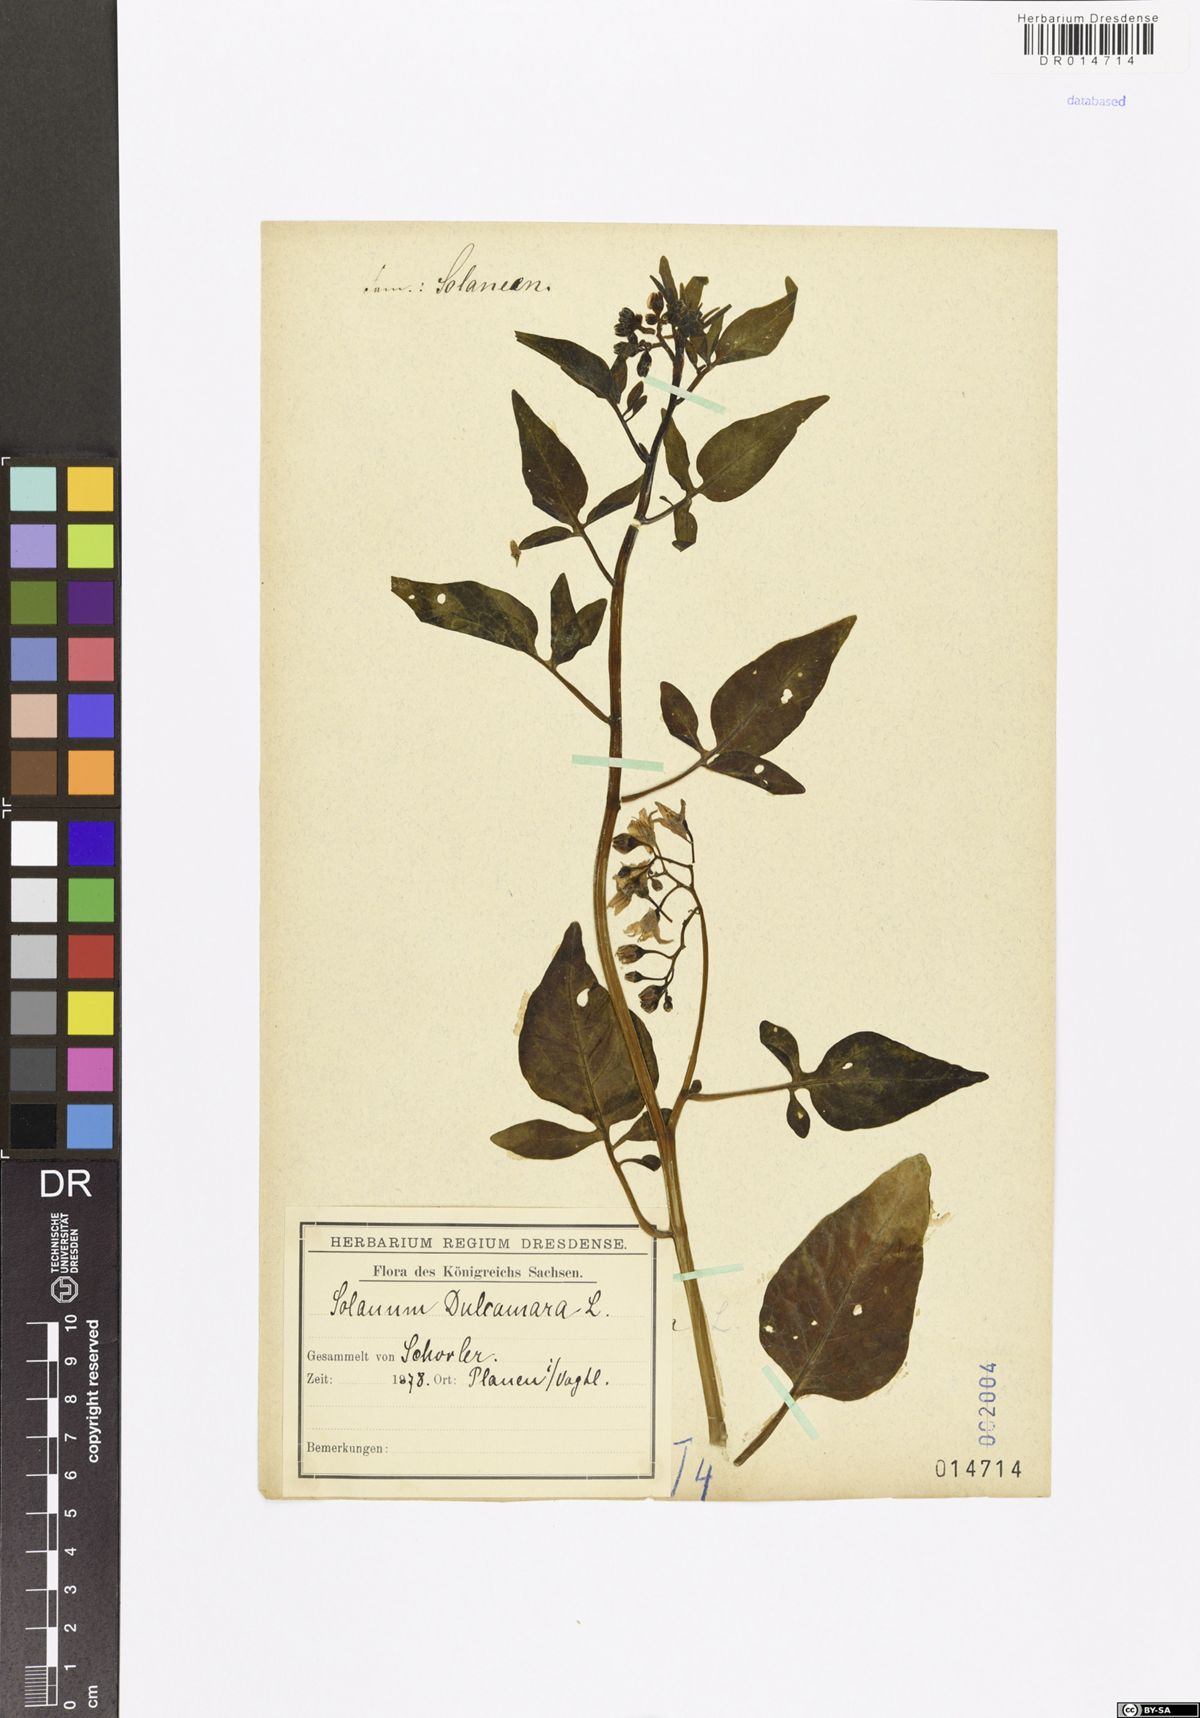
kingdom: Plantae
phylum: Tracheophyta
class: Magnoliopsida
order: Solanales
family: Solanaceae
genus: Solanum
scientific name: Solanum dulcamara
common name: Climbing nightshade
